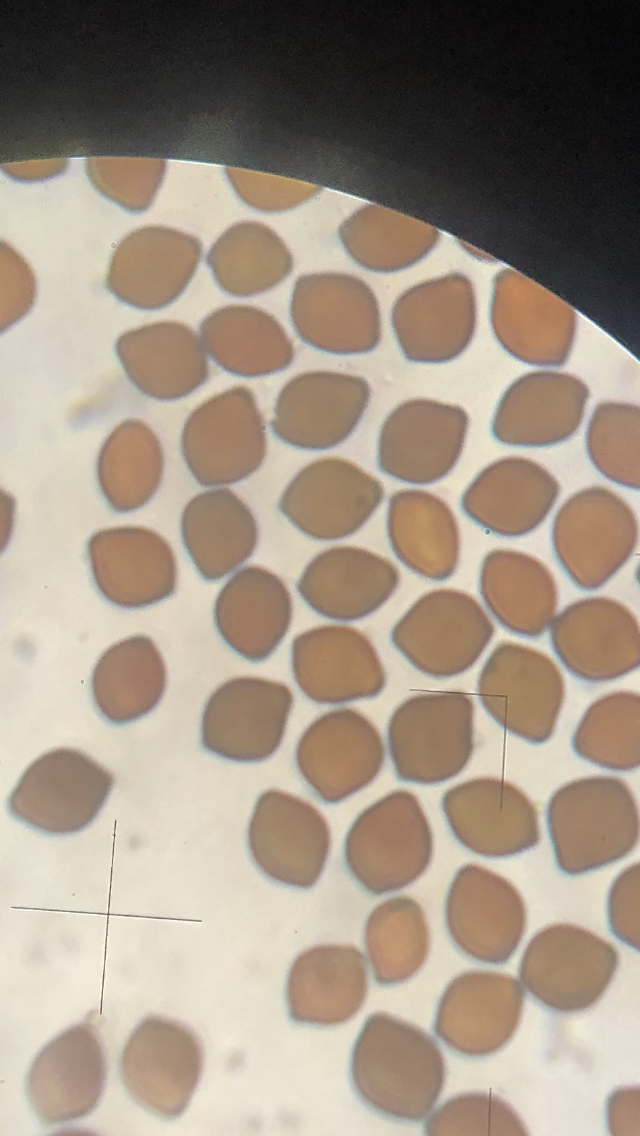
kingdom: Fungi
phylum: Basidiomycota
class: Agaricomycetes
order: Agaricales
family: Bolbitiaceae
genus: Panaeolus
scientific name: Panaeolus acuminatus
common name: høj glanshat
